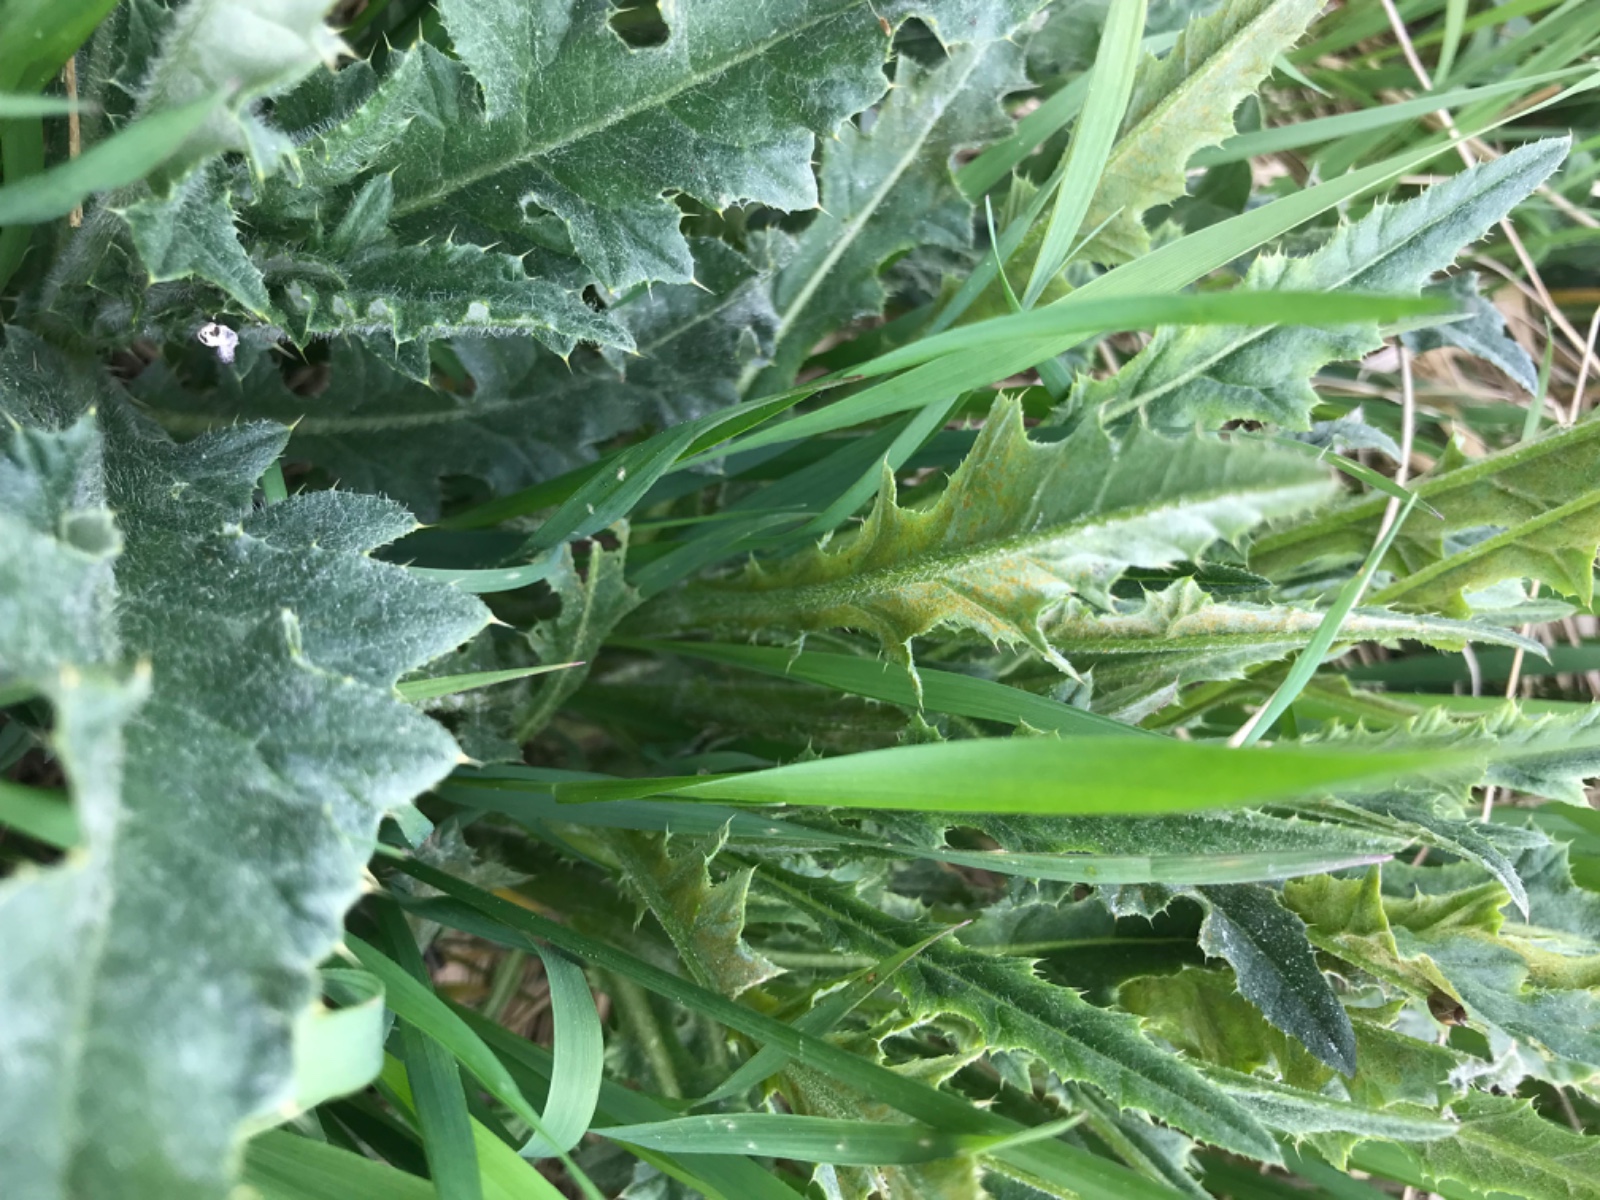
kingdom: Fungi
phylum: Basidiomycota
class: Pucciniomycetes
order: Pucciniales
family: Pucciniaceae
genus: Puccinia
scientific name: Puccinia suaveolens
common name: tidsel-tvecellerust
